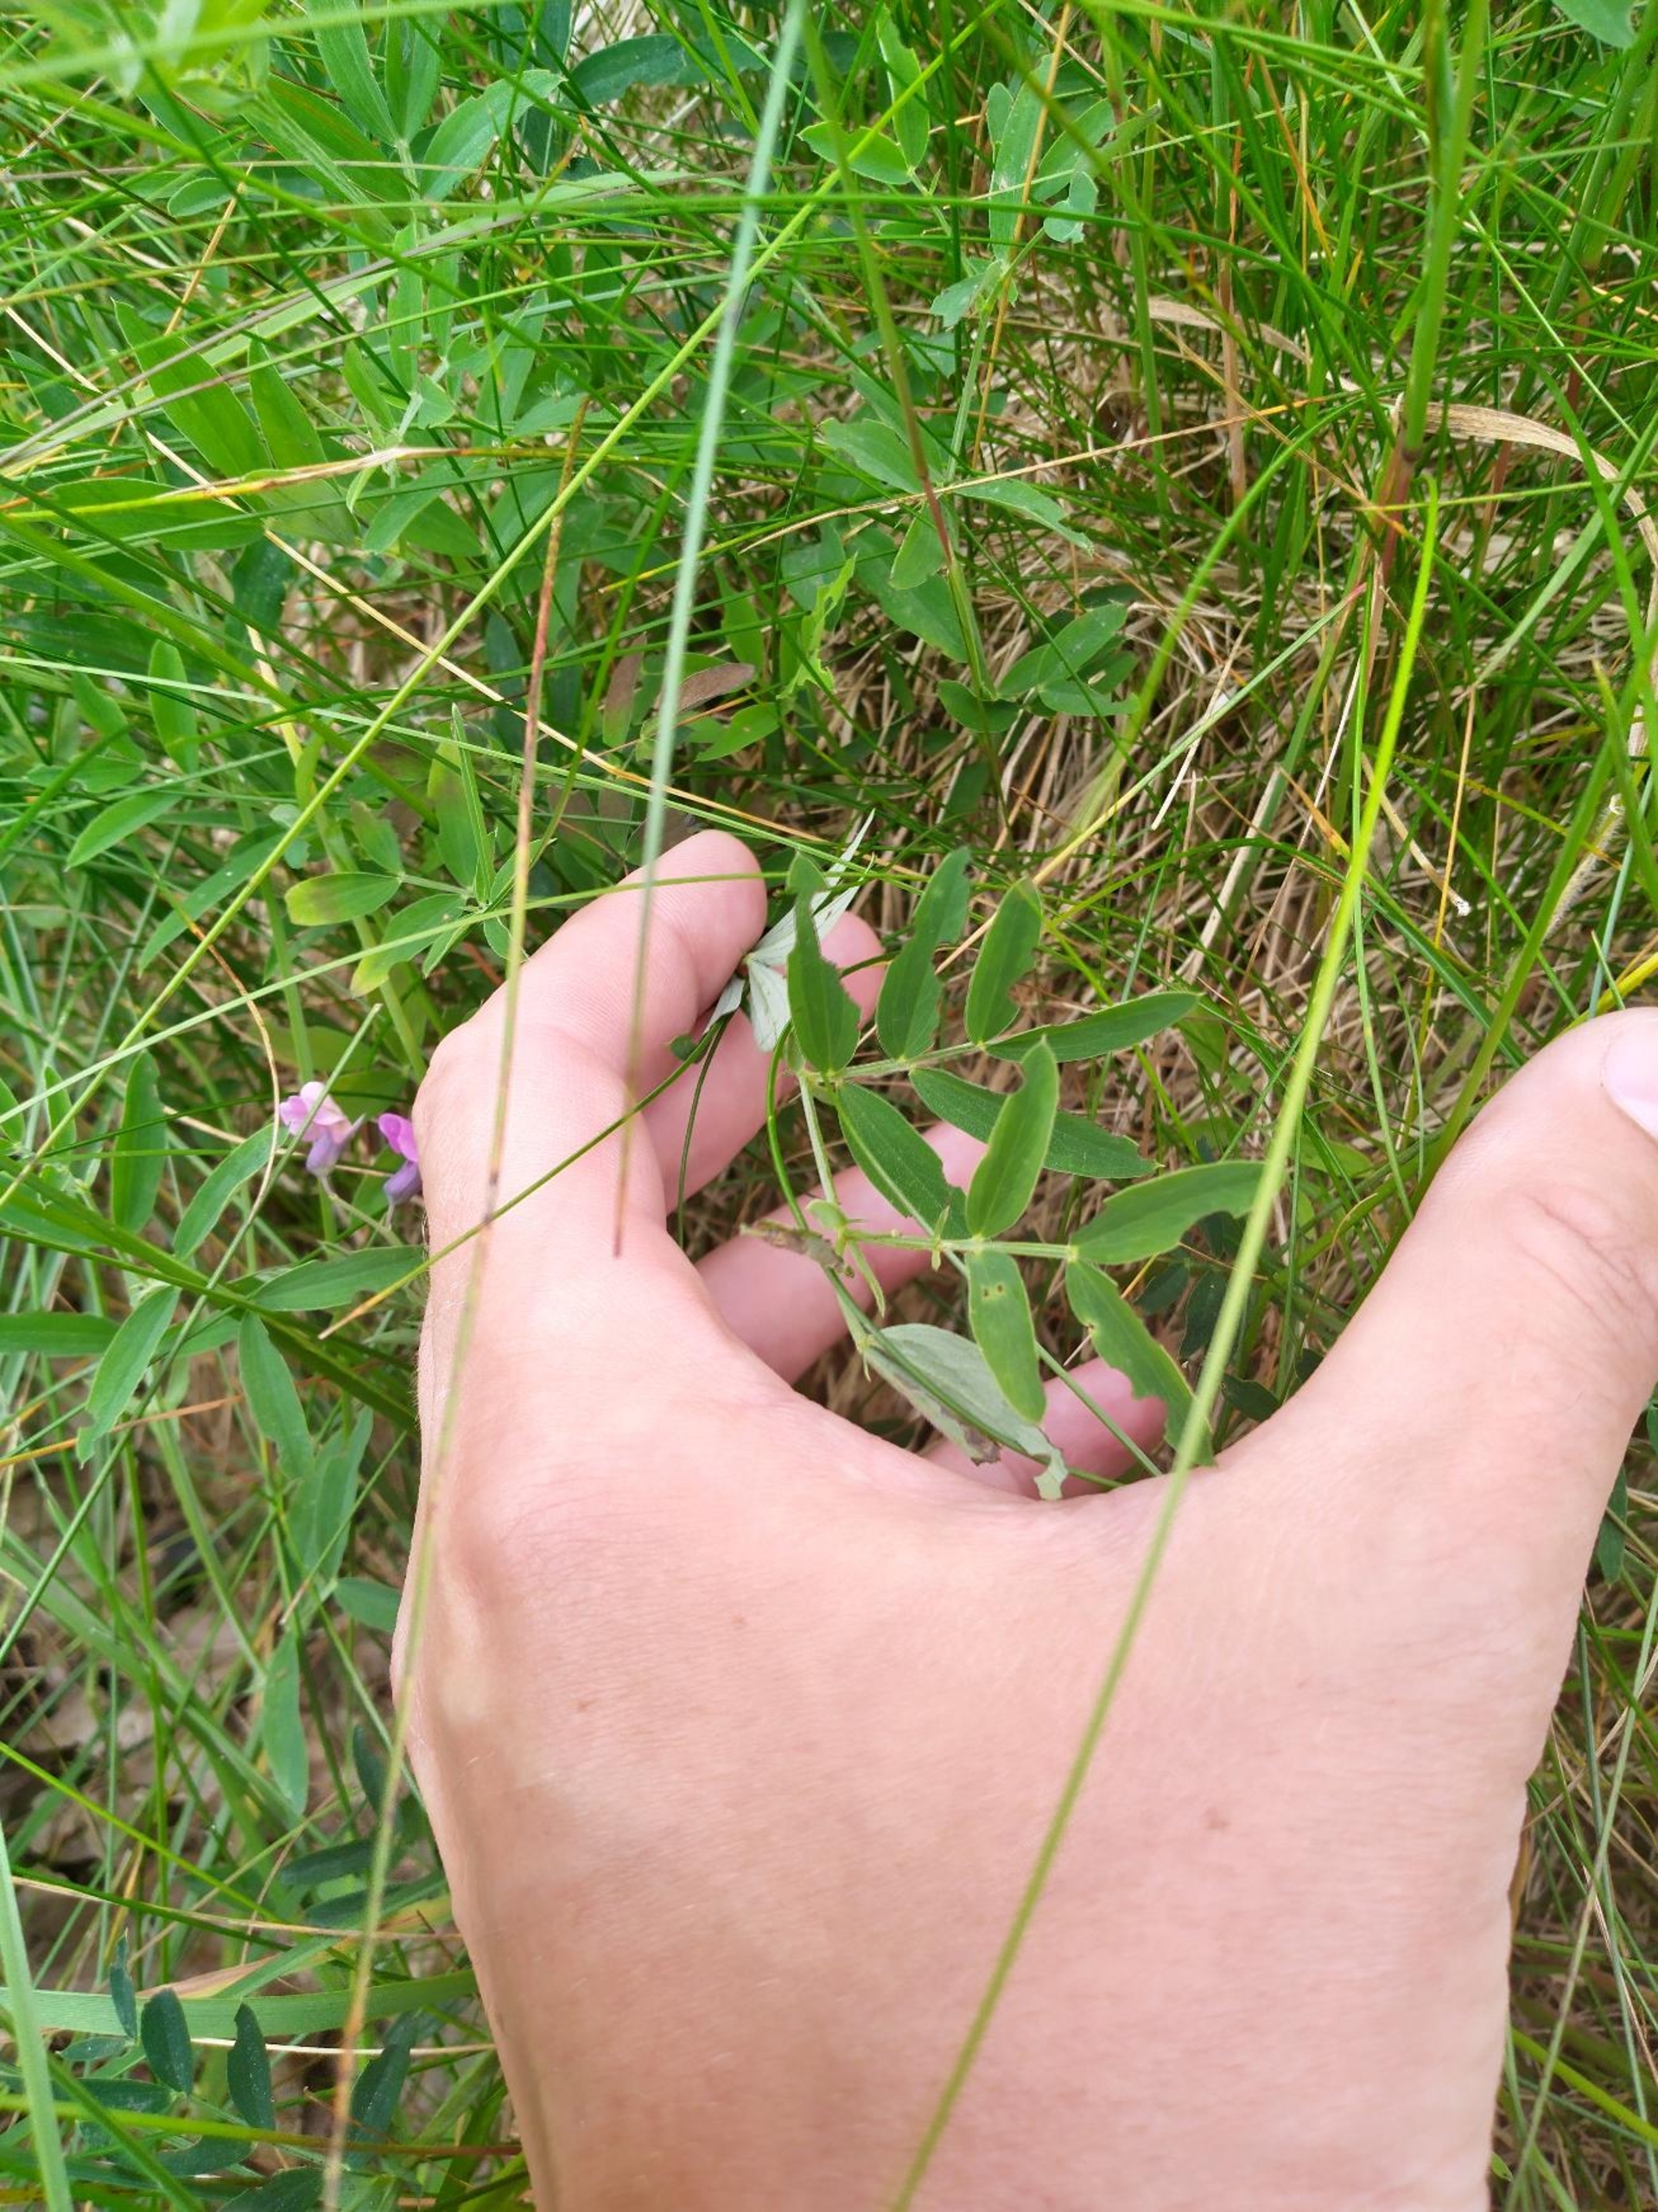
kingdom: Plantae
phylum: Tracheophyta
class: Magnoliopsida
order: Fabales
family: Fabaceae
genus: Lathyrus
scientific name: Lathyrus linifolius
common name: Krat-fladbælg
